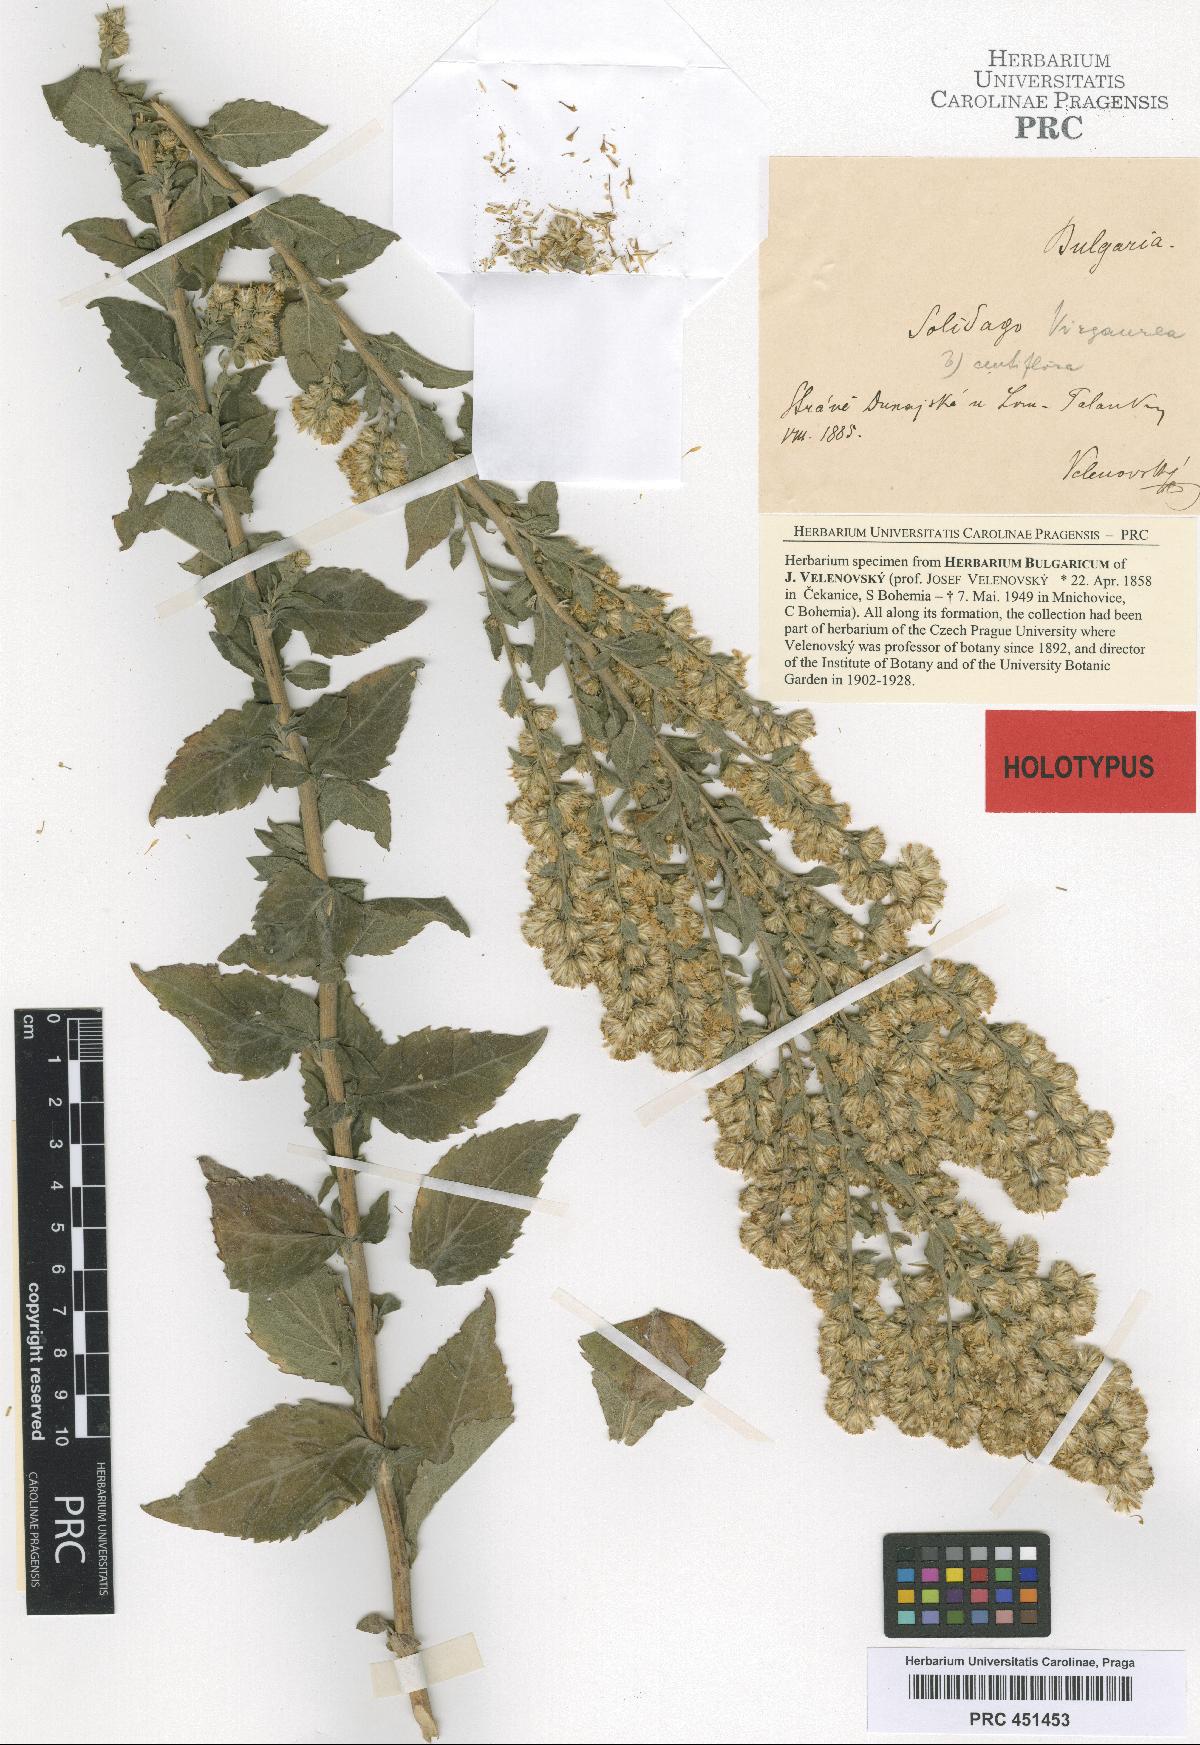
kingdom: Plantae
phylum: Tracheophyta
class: Magnoliopsida
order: Asterales
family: Asteraceae
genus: Solidago
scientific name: Solidago virgaurea
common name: Goldenrod
